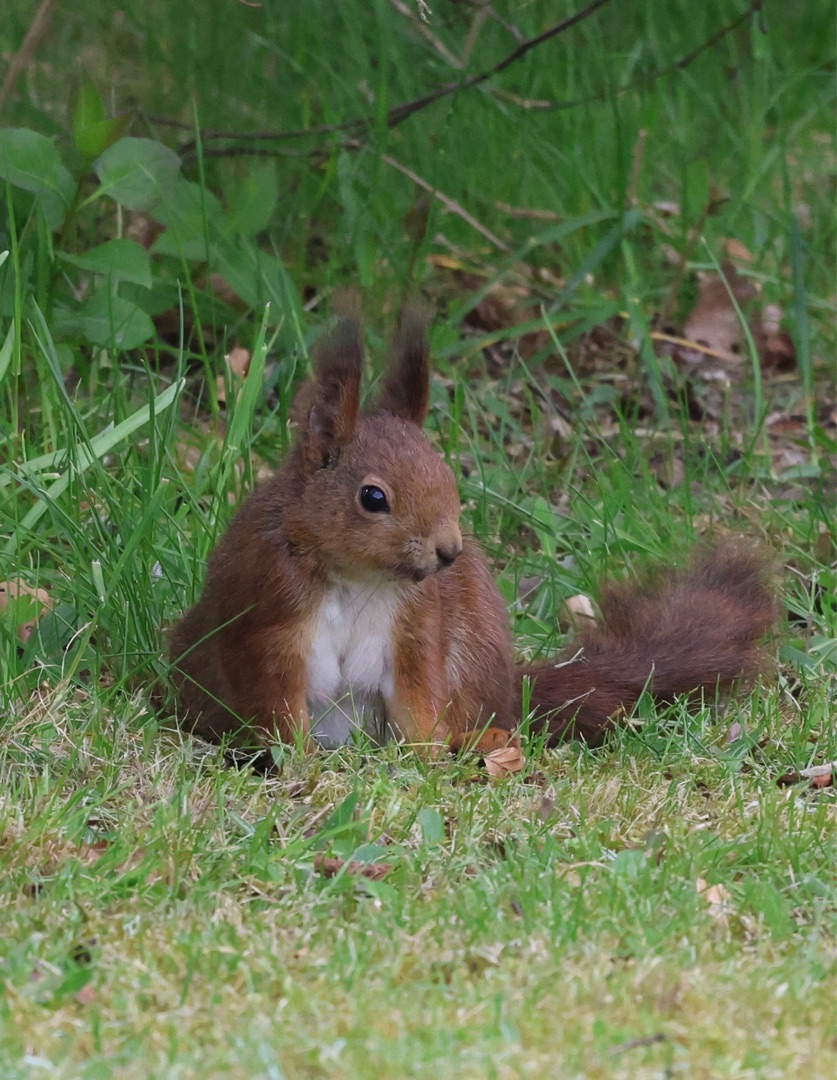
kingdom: Animalia
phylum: Chordata
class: Mammalia
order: Rodentia
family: Sciuridae
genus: Sciurus
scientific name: Sciurus vulgaris
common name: Egern
